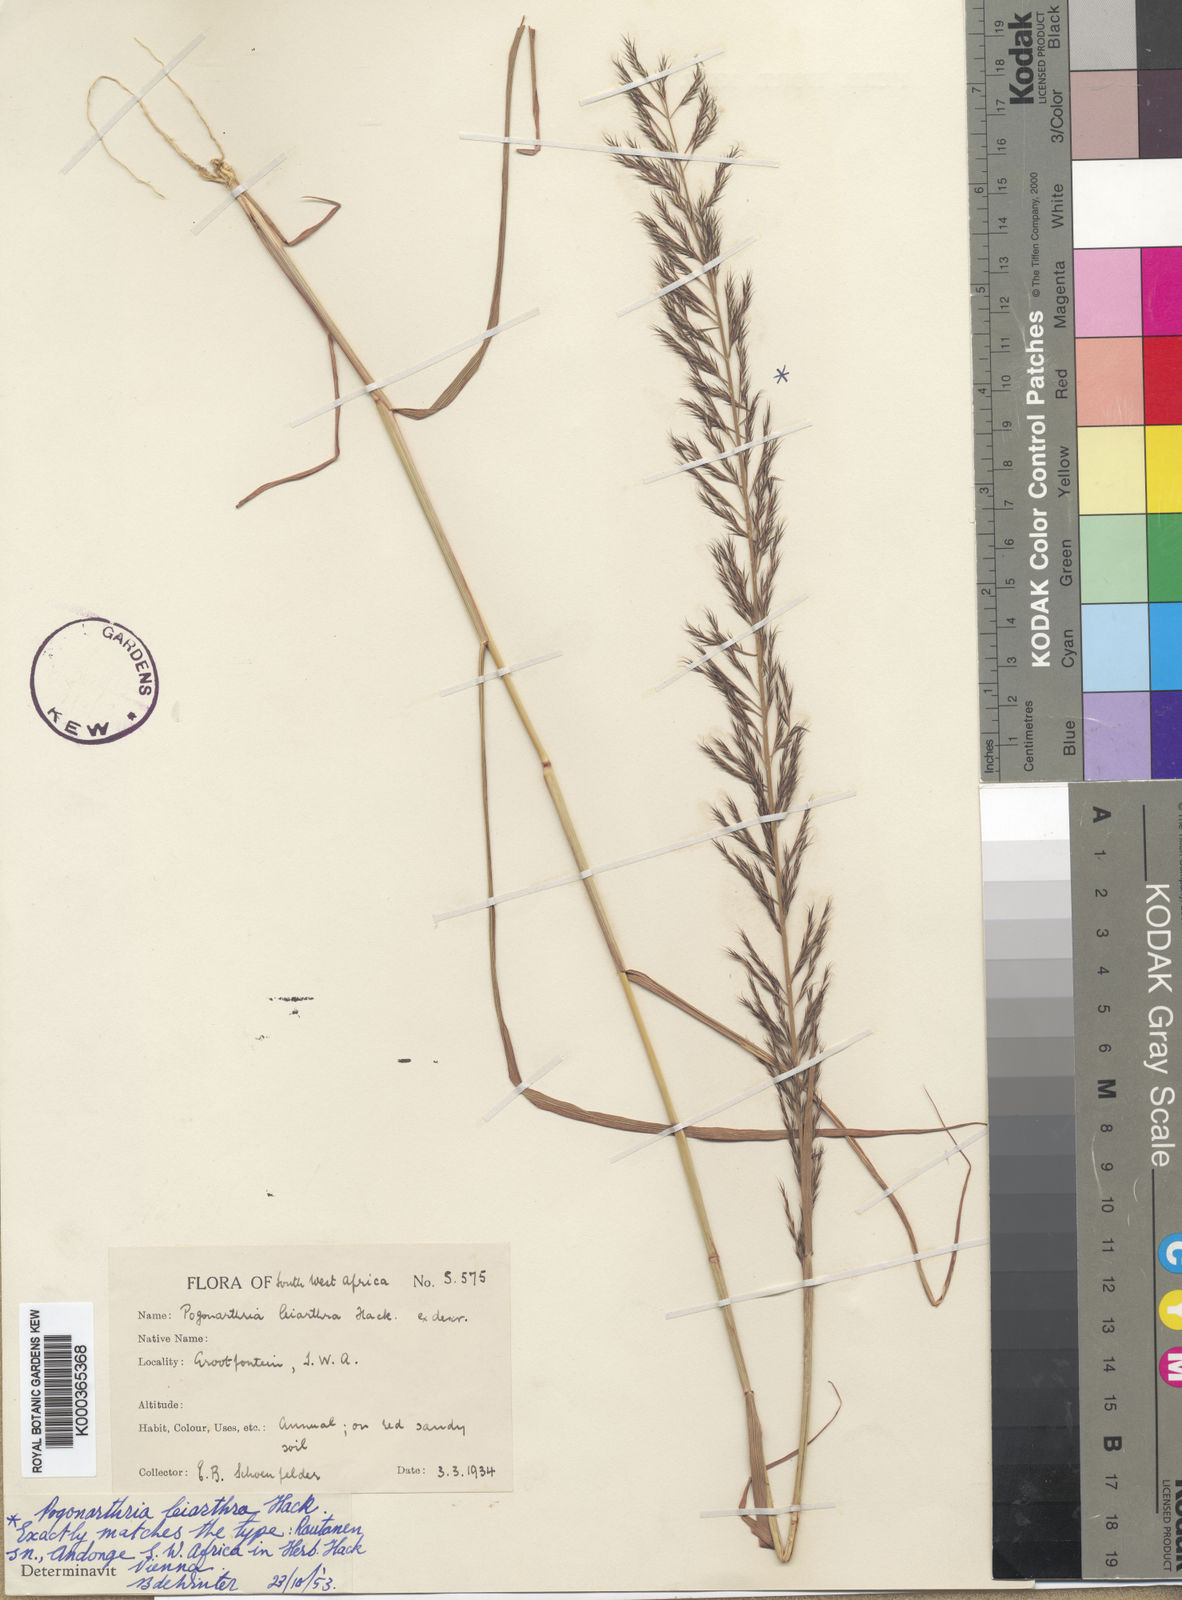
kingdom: Plantae
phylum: Tracheophyta
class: Liliopsida
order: Poales
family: Poaceae
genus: Pogonarthria
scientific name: Pogonarthria leiarthra
